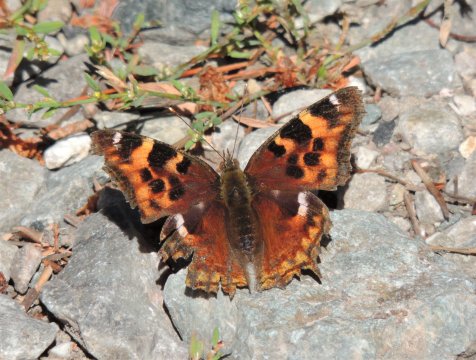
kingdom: Animalia
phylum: Arthropoda
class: Insecta
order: Lepidoptera
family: Nymphalidae
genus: Polygonia
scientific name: Polygonia vaualbum
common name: Compton Tortoiseshell
